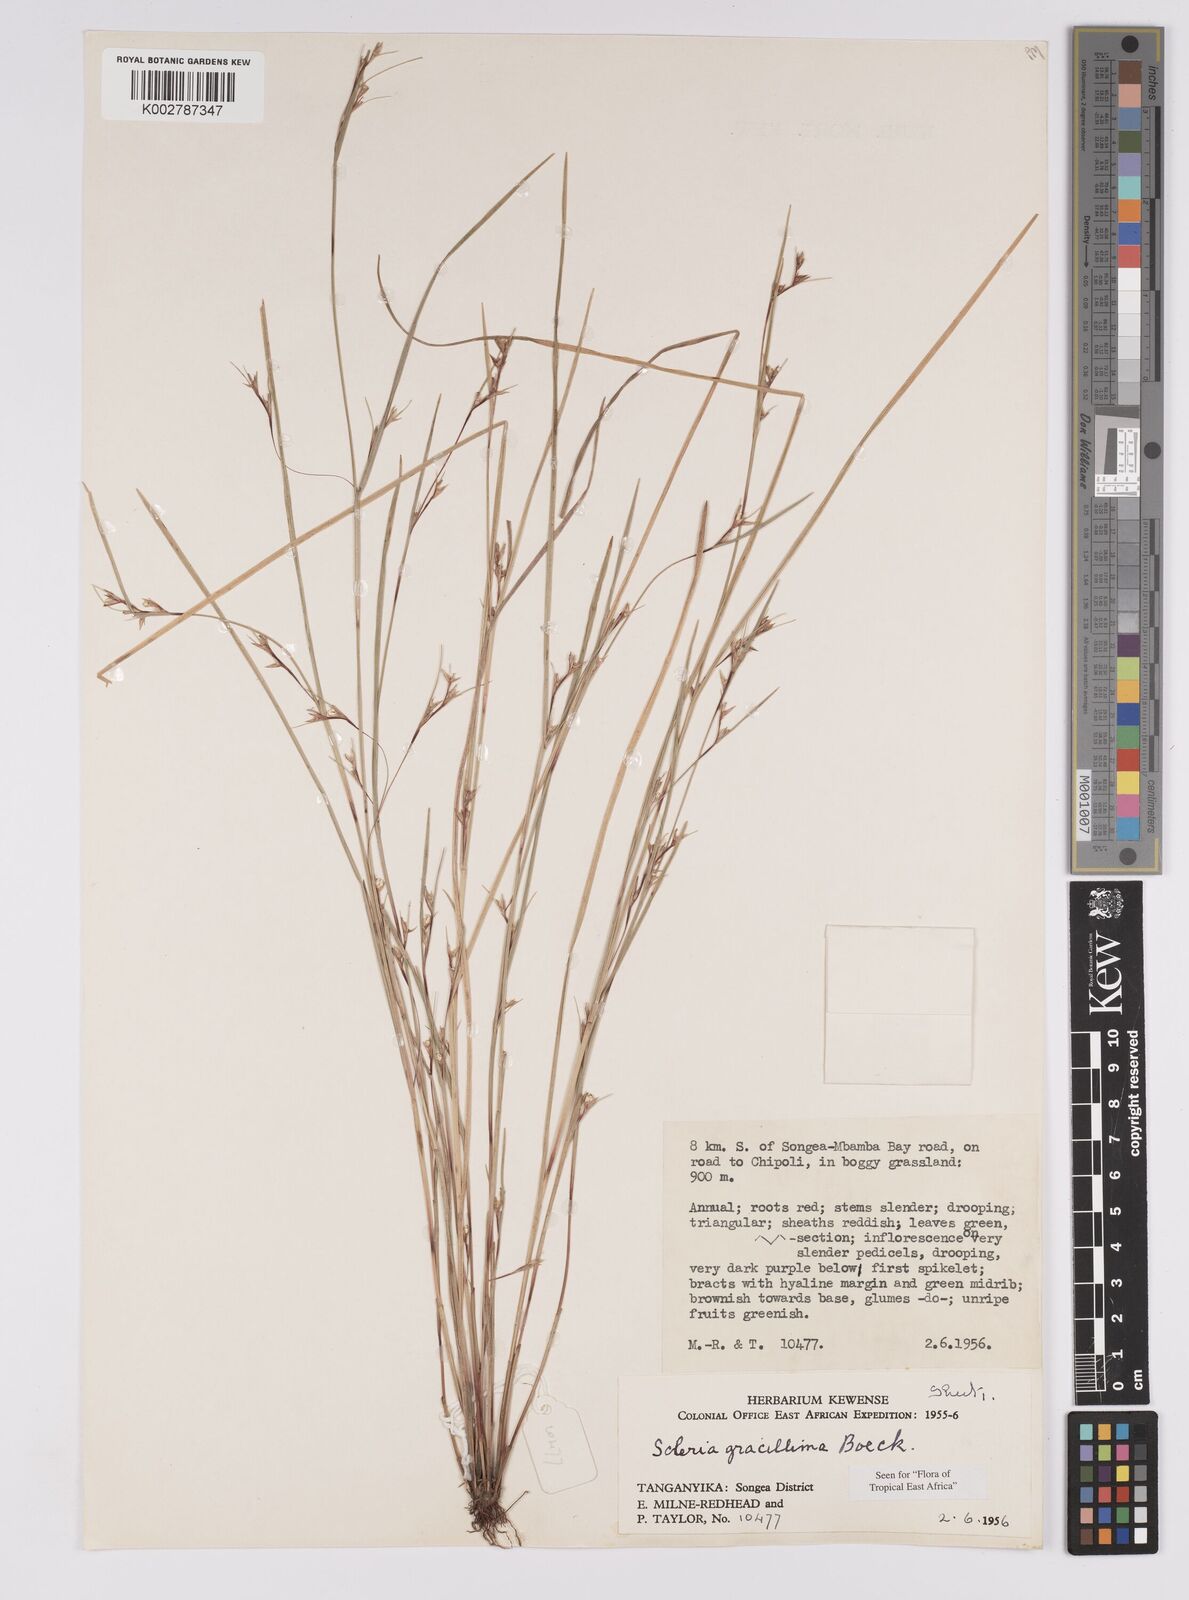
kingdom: Plantae
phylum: Tracheophyta
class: Liliopsida
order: Poales
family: Cyperaceae
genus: Scleria
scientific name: Scleria gracillima
